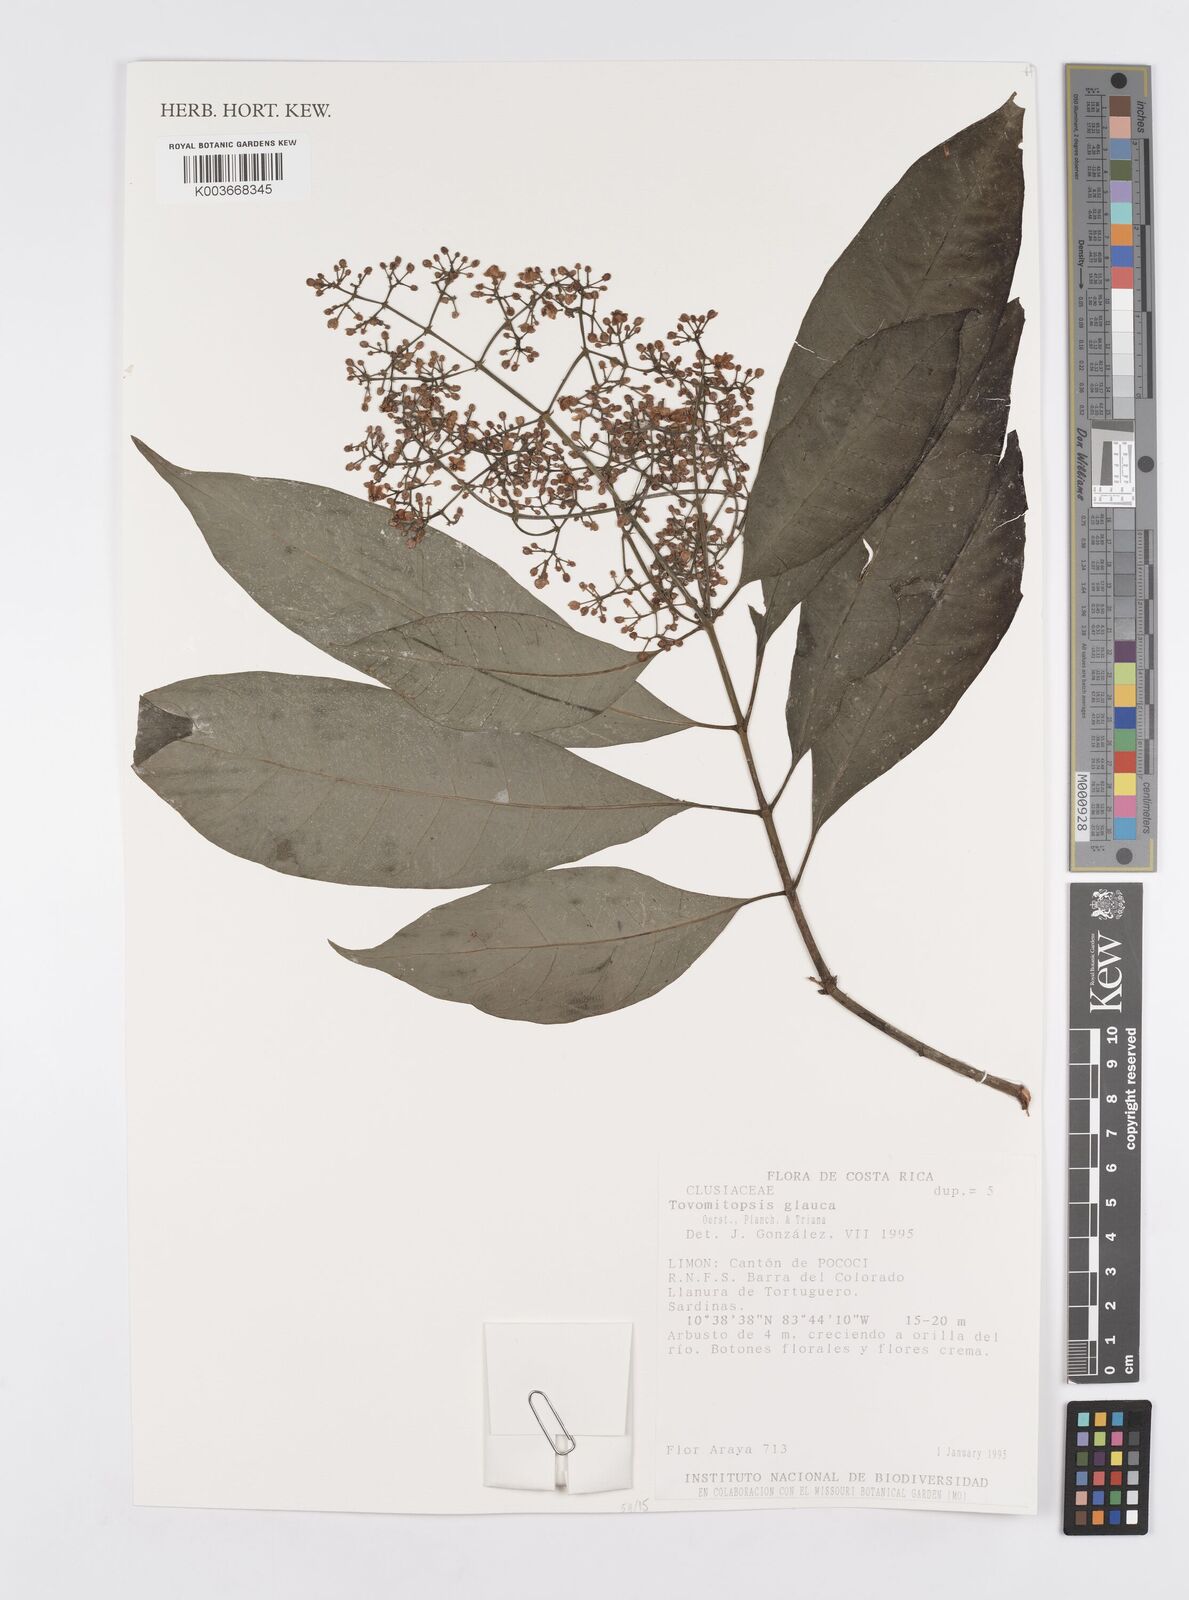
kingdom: Plantae
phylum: Tracheophyta
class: Magnoliopsida
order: Malpighiales
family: Clusiaceae
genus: Chrysochlamys
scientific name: Chrysochlamys glauca
